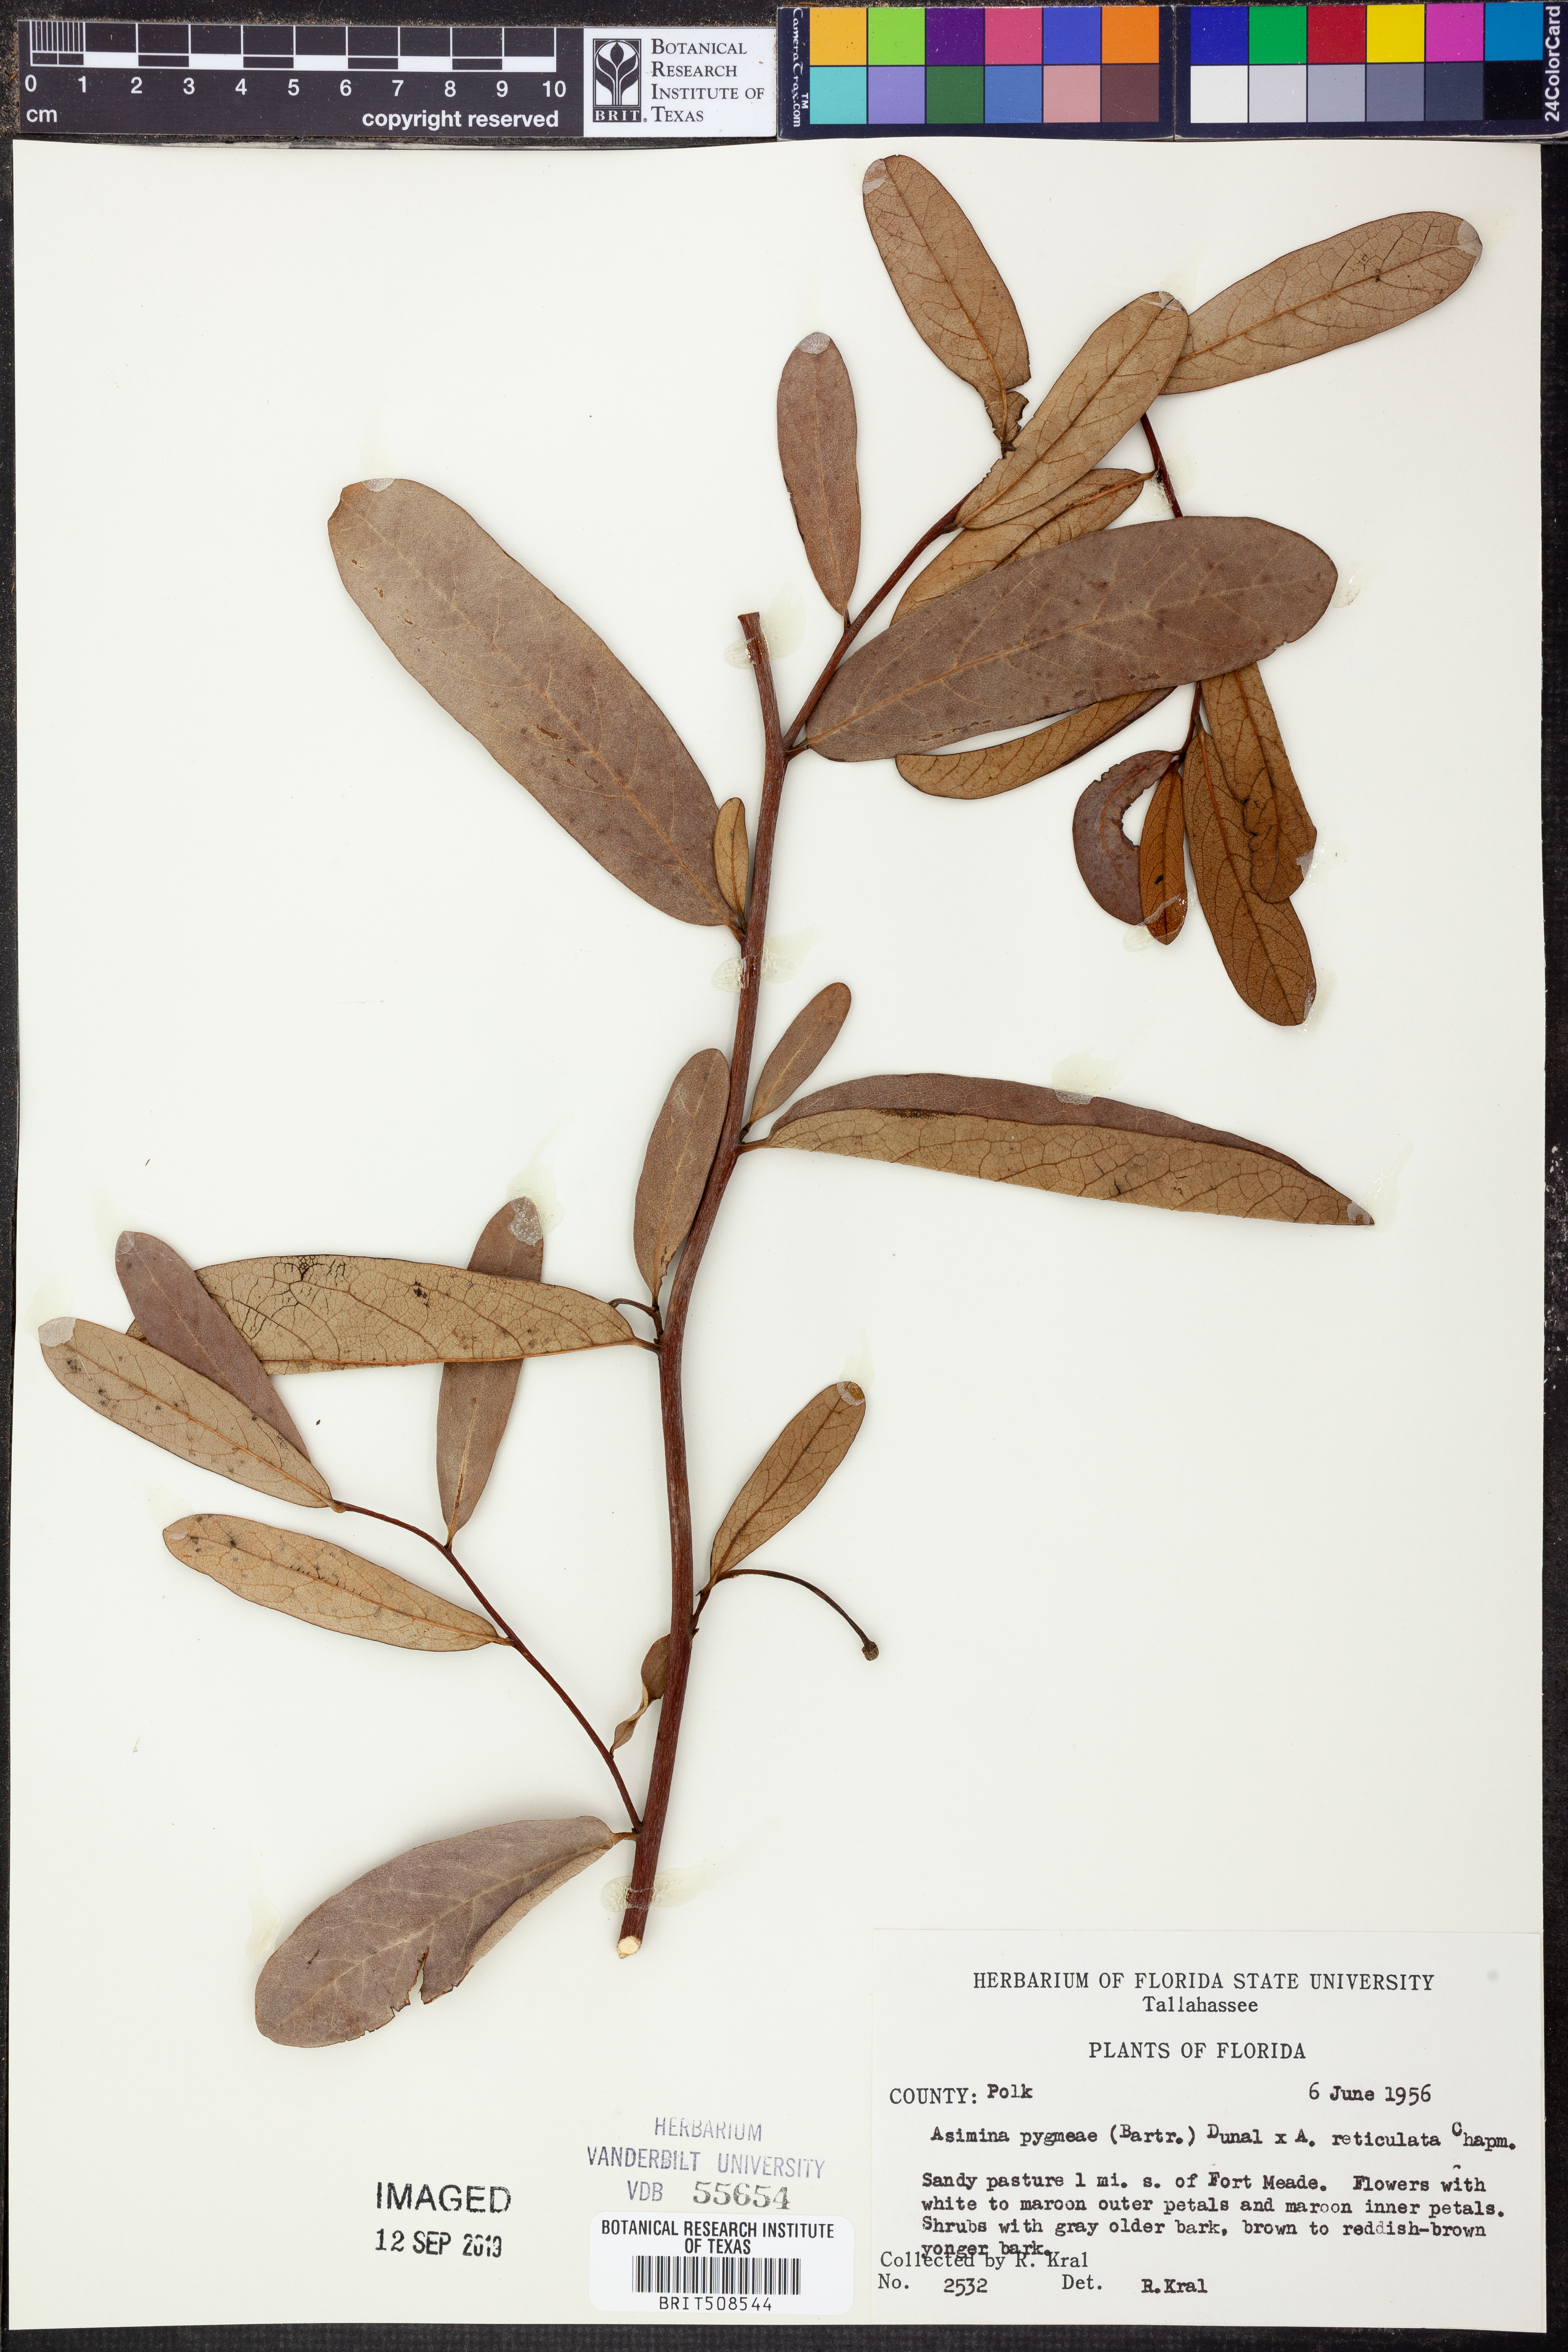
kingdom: Plantae
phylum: Tracheophyta
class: Magnoliopsida
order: Magnoliales
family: Annonaceae
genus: Asimina
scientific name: Asimina pygmaea
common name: Dwarf pawpaw
